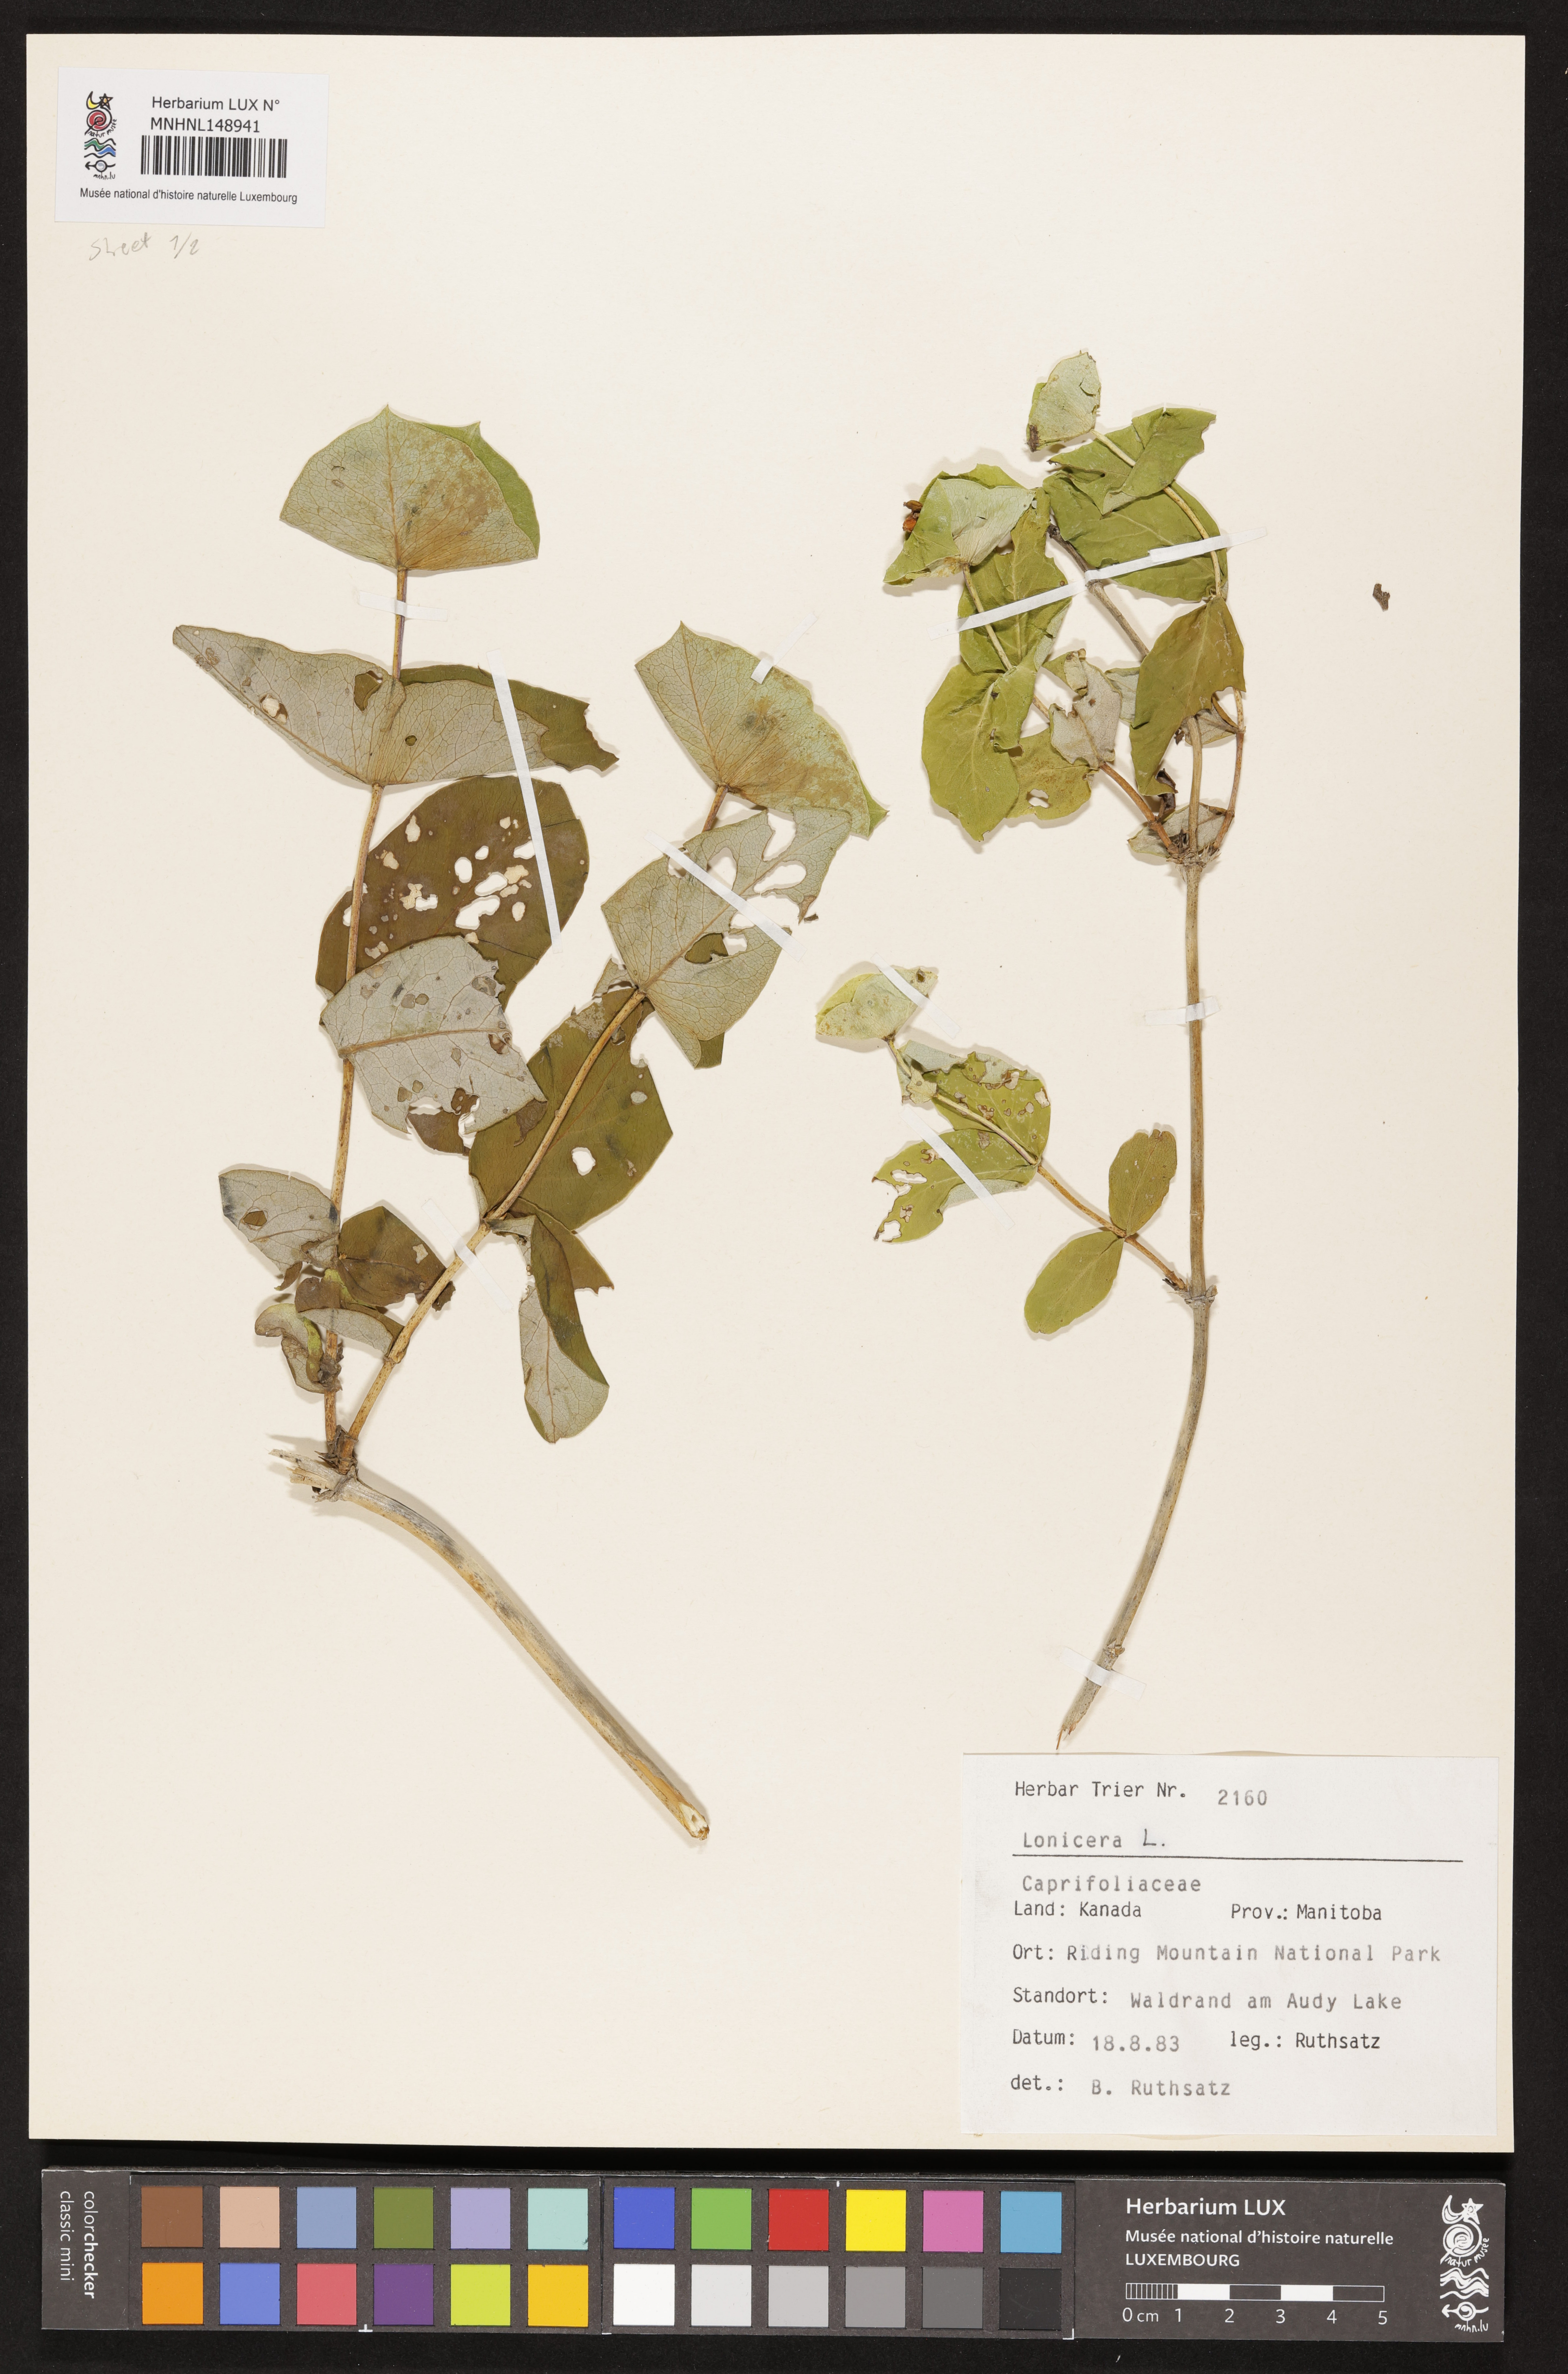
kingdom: Plantae
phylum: Tracheophyta
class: Magnoliopsida
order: Dipsacales
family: Caprifoliaceae
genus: Lonicera
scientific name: Lonicera
